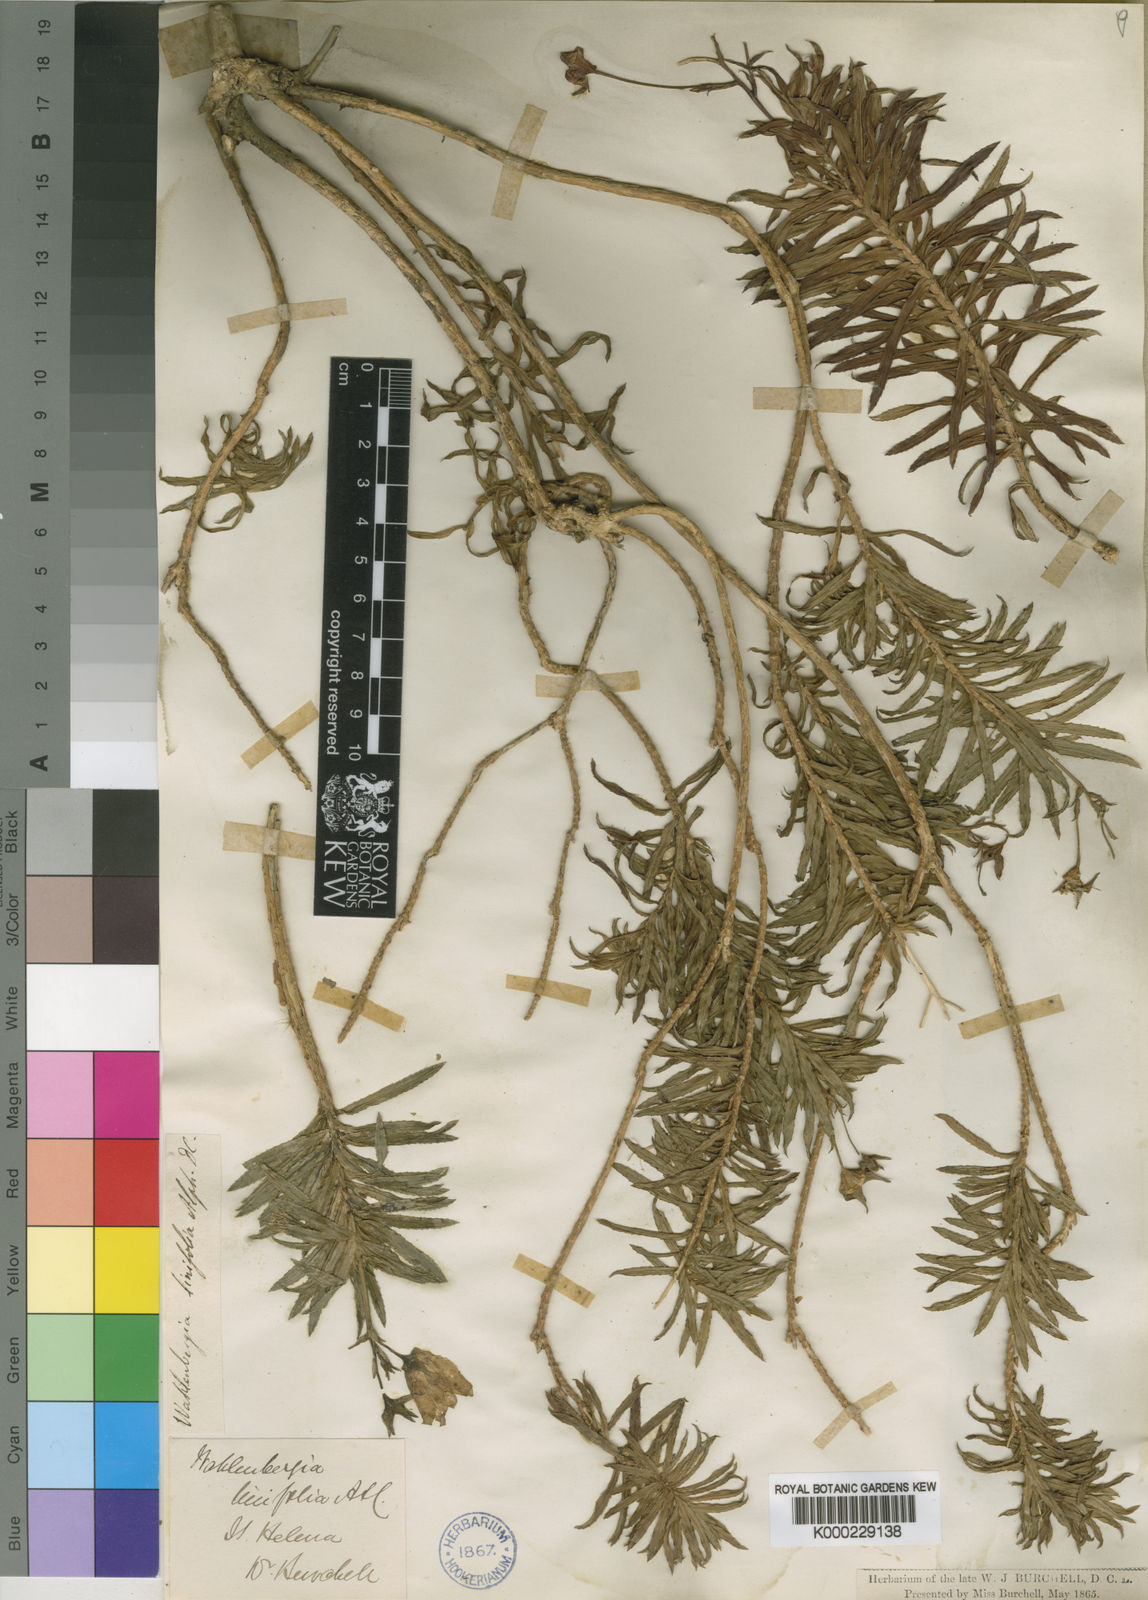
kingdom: Plantae
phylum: Tracheophyta
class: Magnoliopsida
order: Asterales
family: Campanulaceae
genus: Wahlenbergia
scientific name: Wahlenbergia linifolia
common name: Large bellflower
